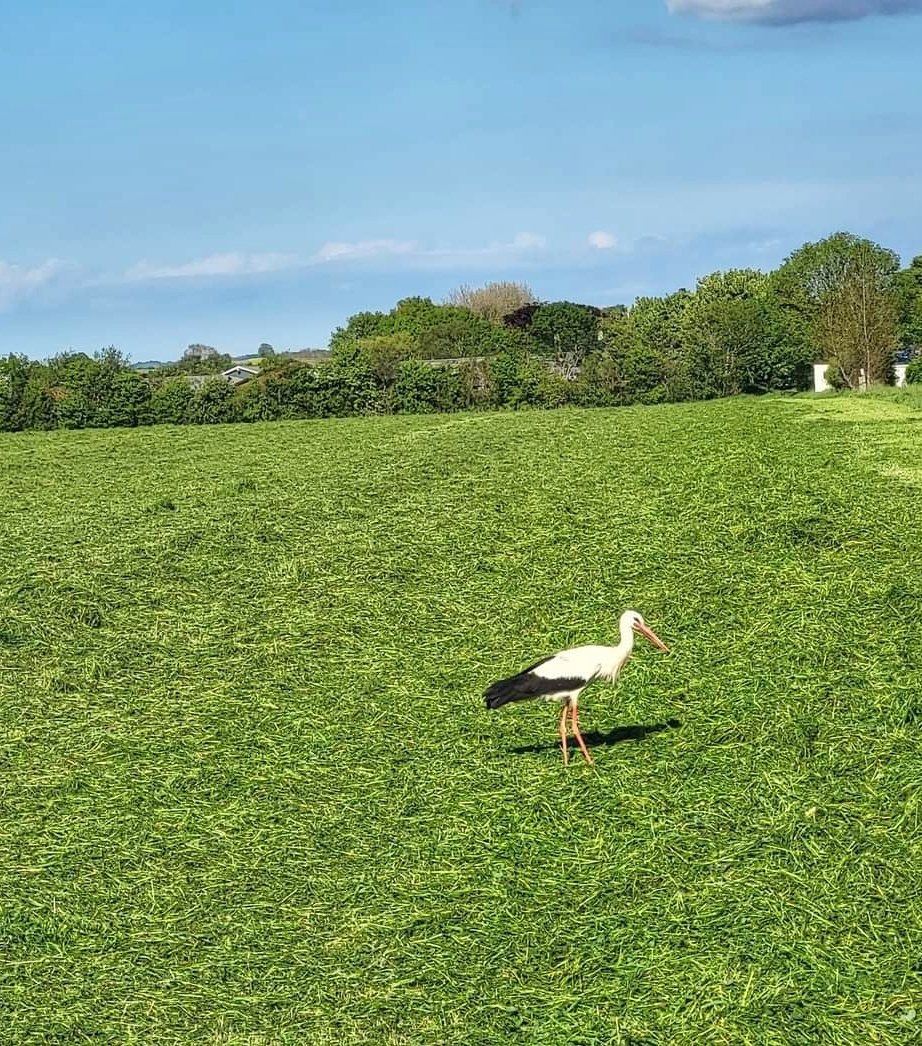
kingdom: Animalia
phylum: Chordata
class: Aves
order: Ciconiiformes
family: Ciconiidae
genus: Ciconia
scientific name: Ciconia ciconia
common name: Hvid stork
